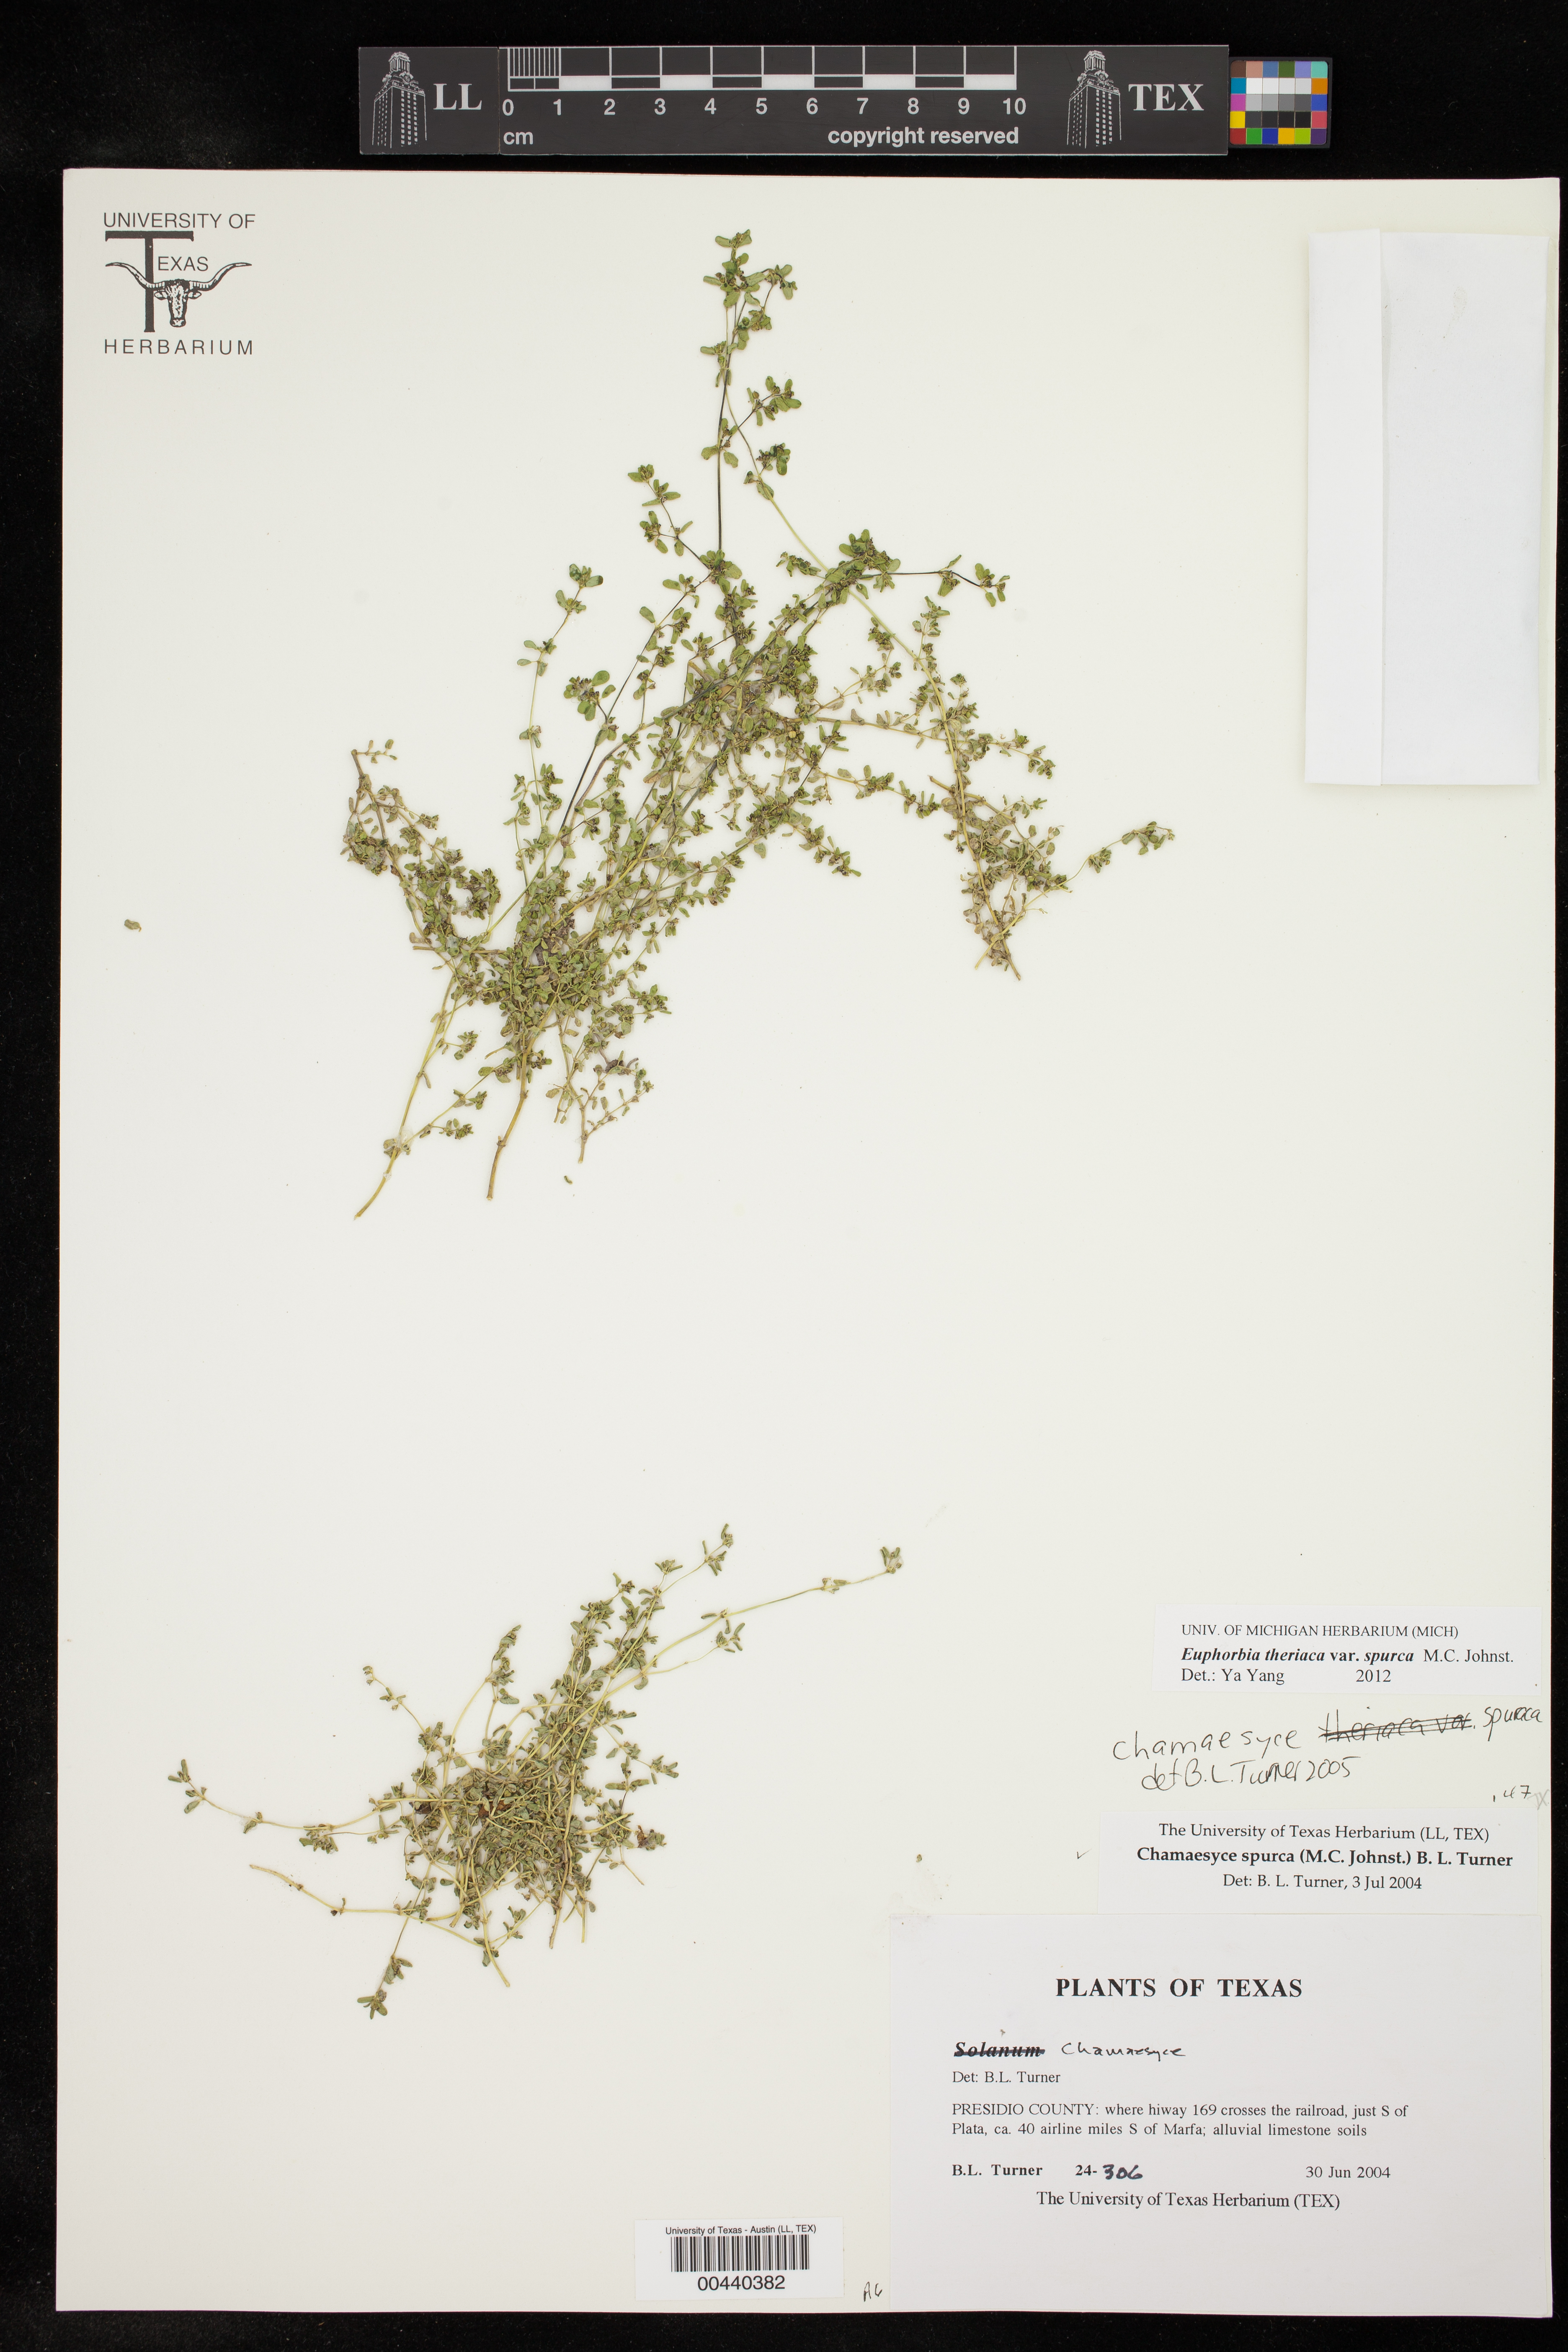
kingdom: Plantae
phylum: Tracheophyta
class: Magnoliopsida
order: Malpighiales
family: Euphorbiaceae
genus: Euphorbia
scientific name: Euphorbia spurca
